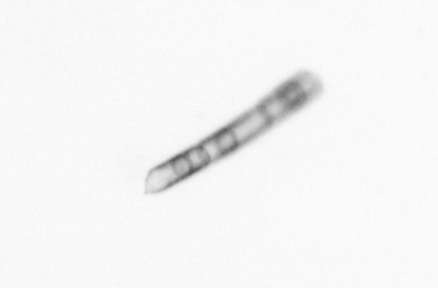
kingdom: Chromista
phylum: Ochrophyta
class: Bacillariophyceae
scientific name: Bacillariophyceae
